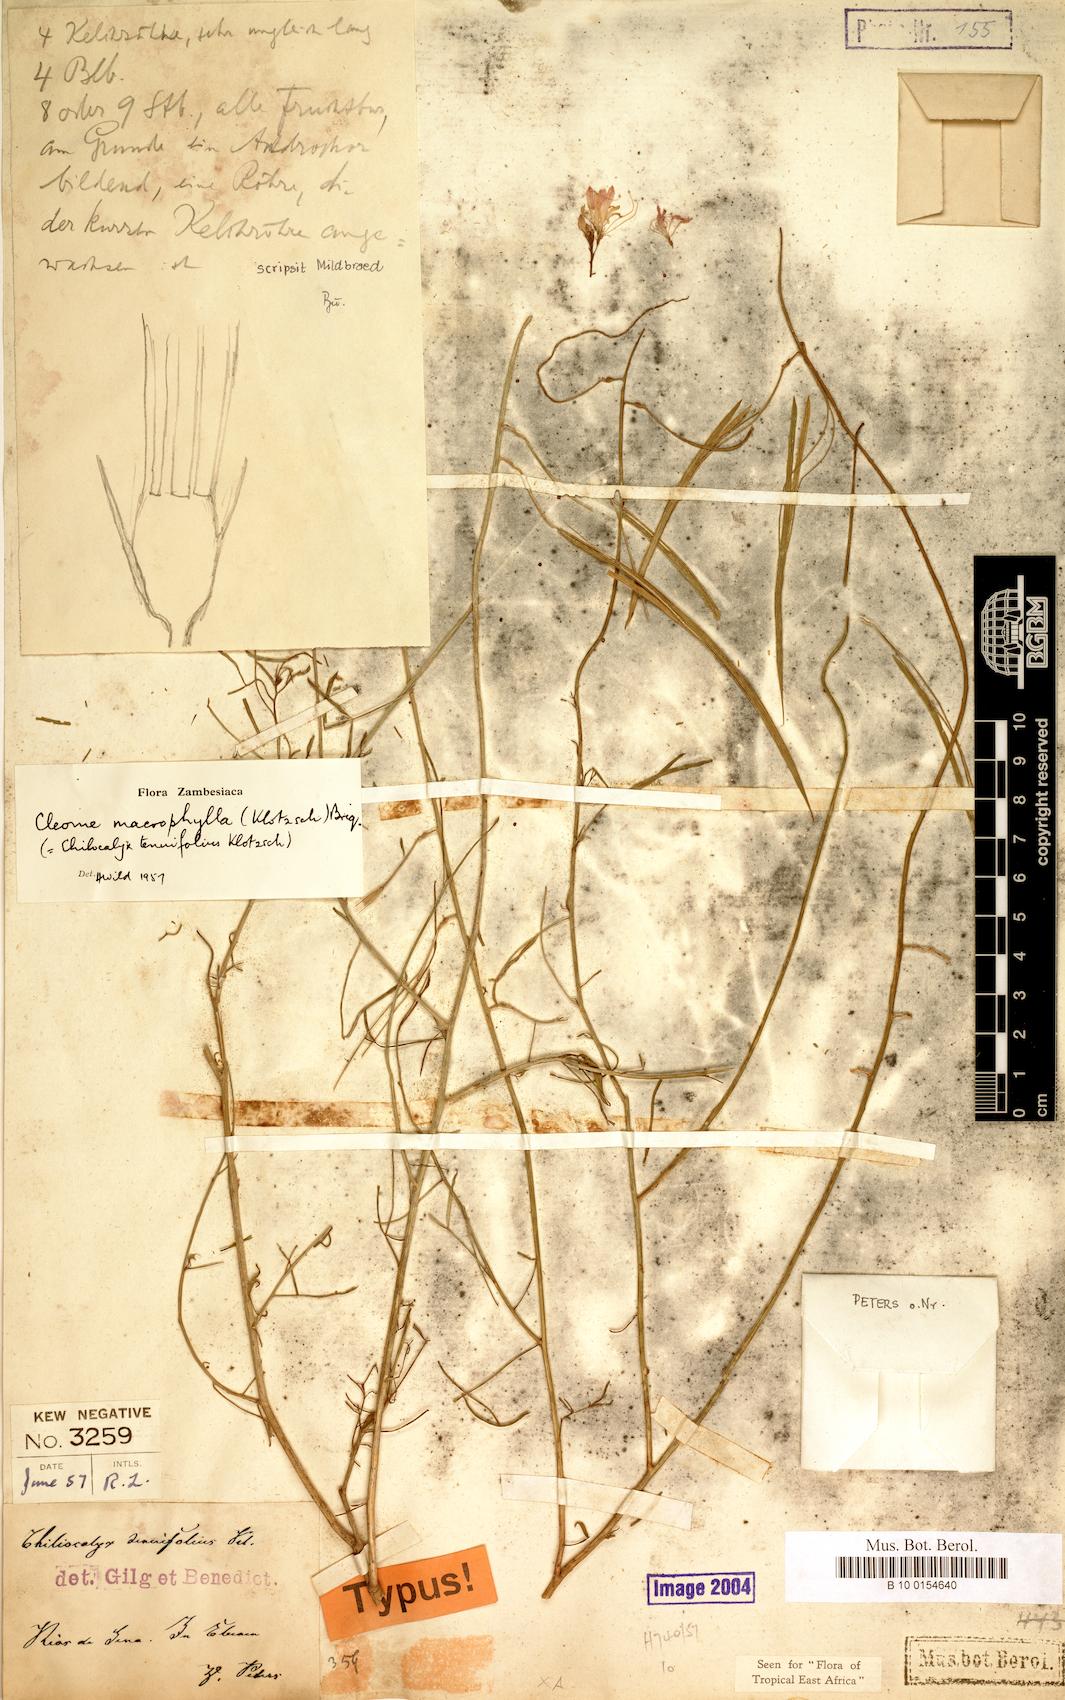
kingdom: Plantae
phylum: Tracheophyta
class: Magnoliopsida
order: Brassicales
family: Cleomaceae
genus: Sieruela
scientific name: Sieruela macrophylla
